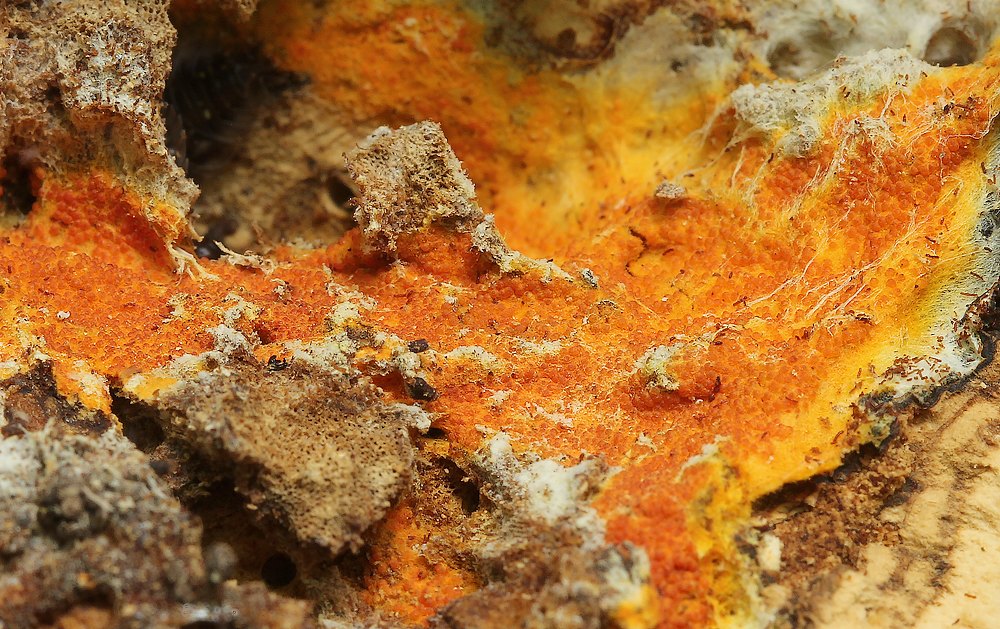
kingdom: Fungi
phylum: Ascomycota
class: Sordariomycetes
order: Hypocreales
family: Hypocreaceae
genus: Hypomyces
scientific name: Hypomyces aurantius
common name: almindelig snylteskorpe
